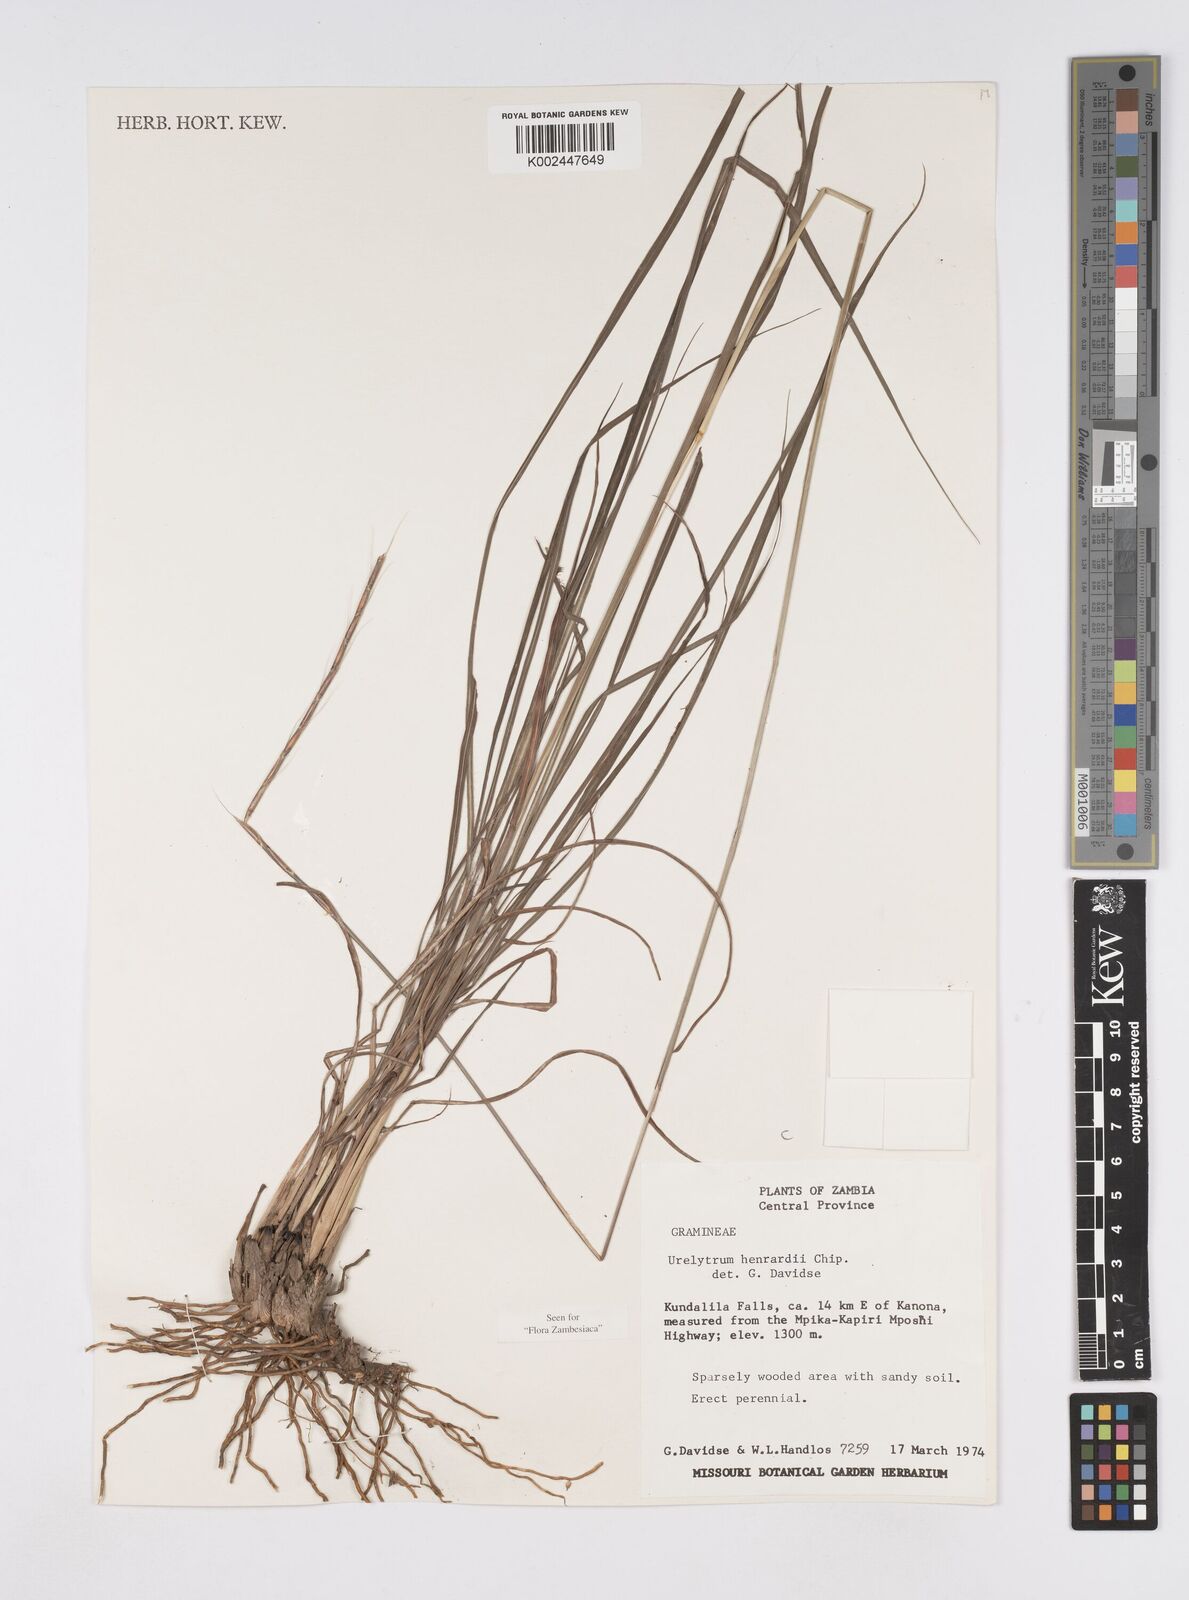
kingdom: Plantae
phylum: Tracheophyta
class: Liliopsida
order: Poales
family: Poaceae
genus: Urelytrum
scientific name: Urelytrum henrardii
